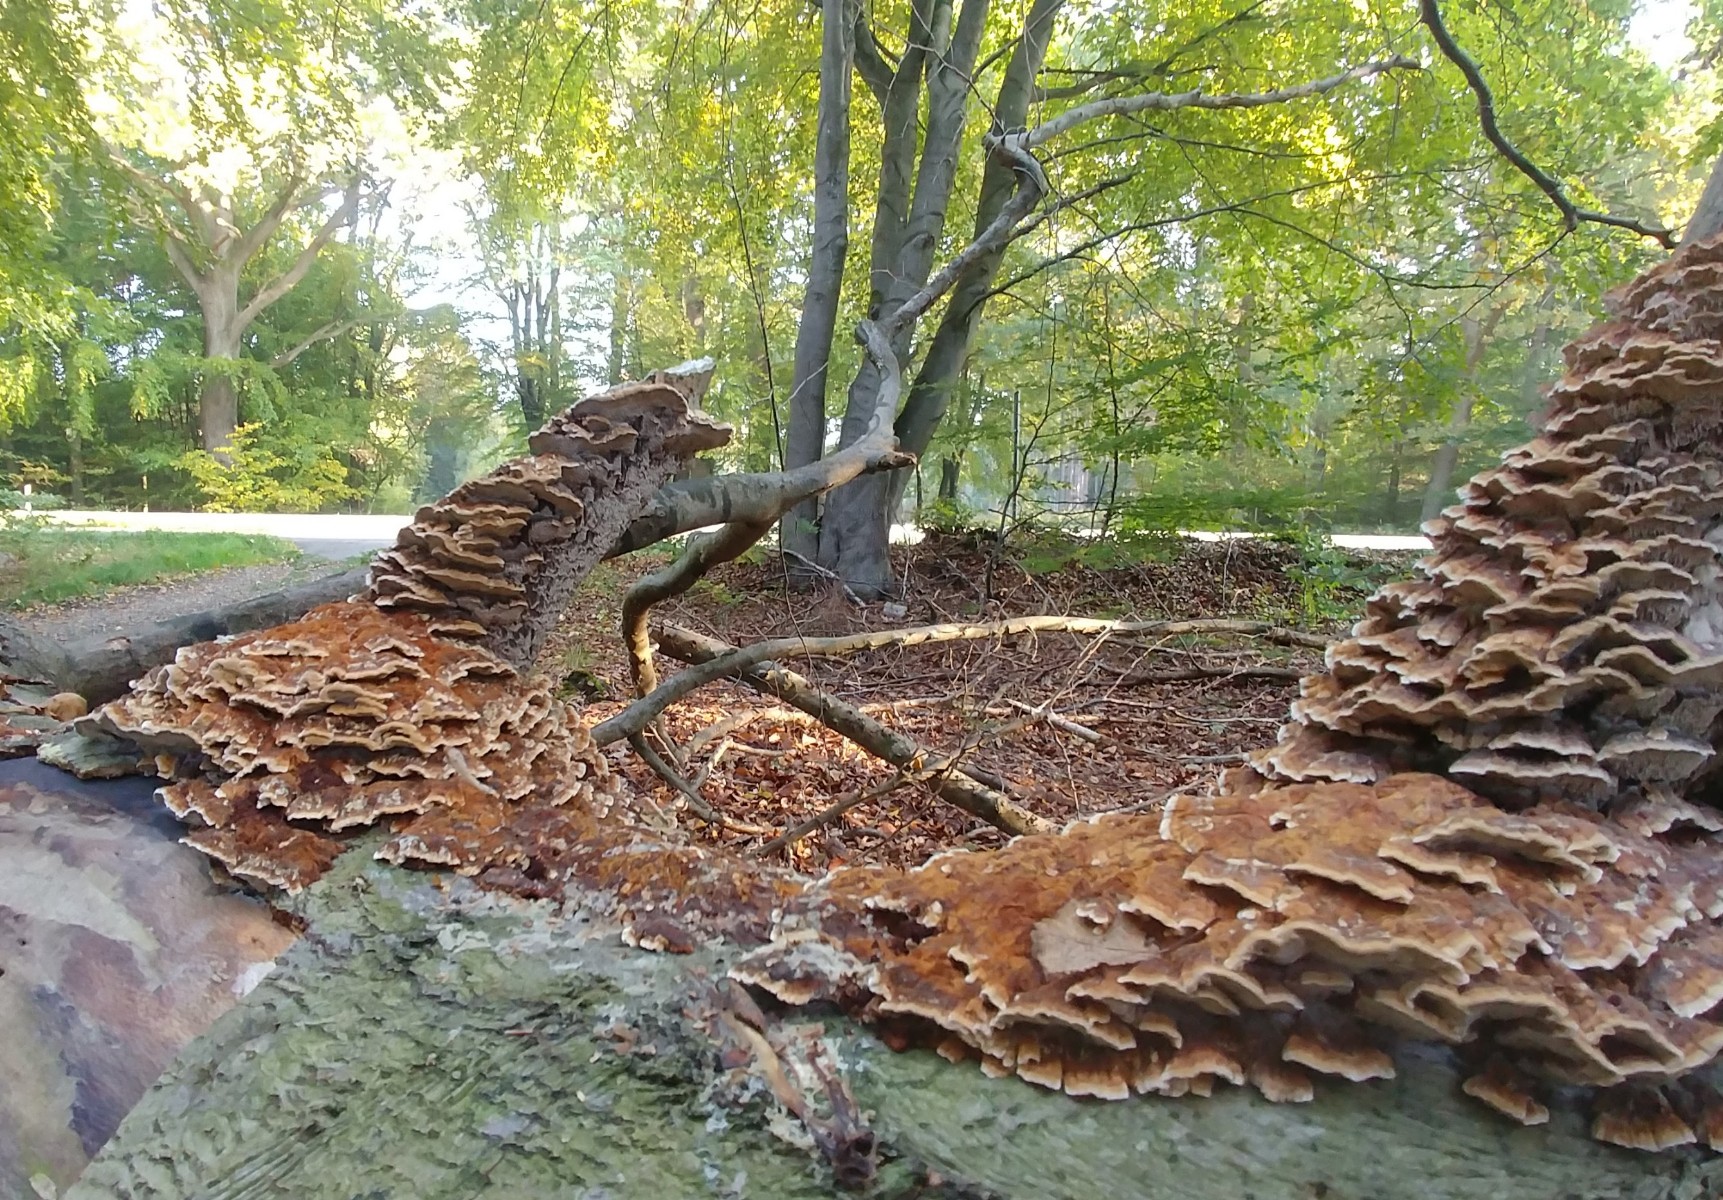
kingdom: Fungi
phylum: Basidiomycota
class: Agaricomycetes
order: Hymenochaetales
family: Hymenochaetaceae
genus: Mensularia
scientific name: Mensularia nodulosa
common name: bøge-spejlporesvamp
